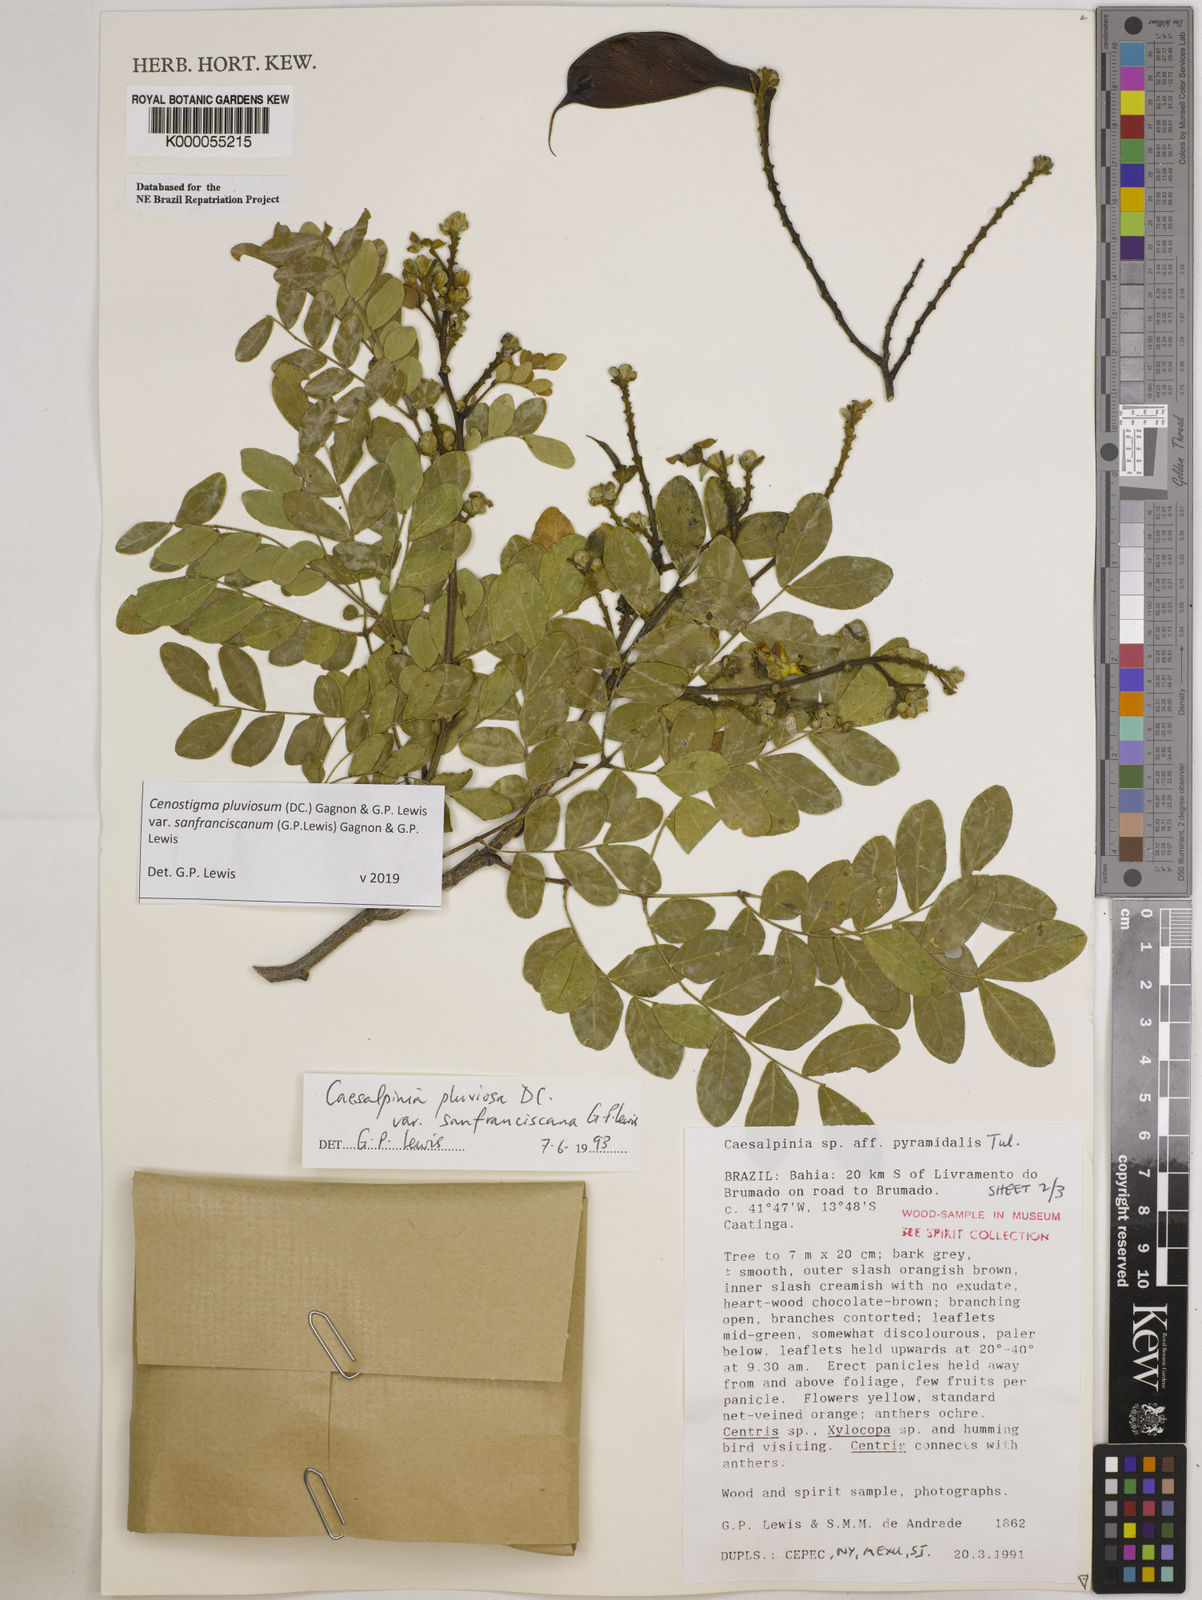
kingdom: Plantae
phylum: Tracheophyta
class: Magnoliopsida
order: Fabales
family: Fabaceae
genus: Cenostigma
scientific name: Cenostigma pluviosum
